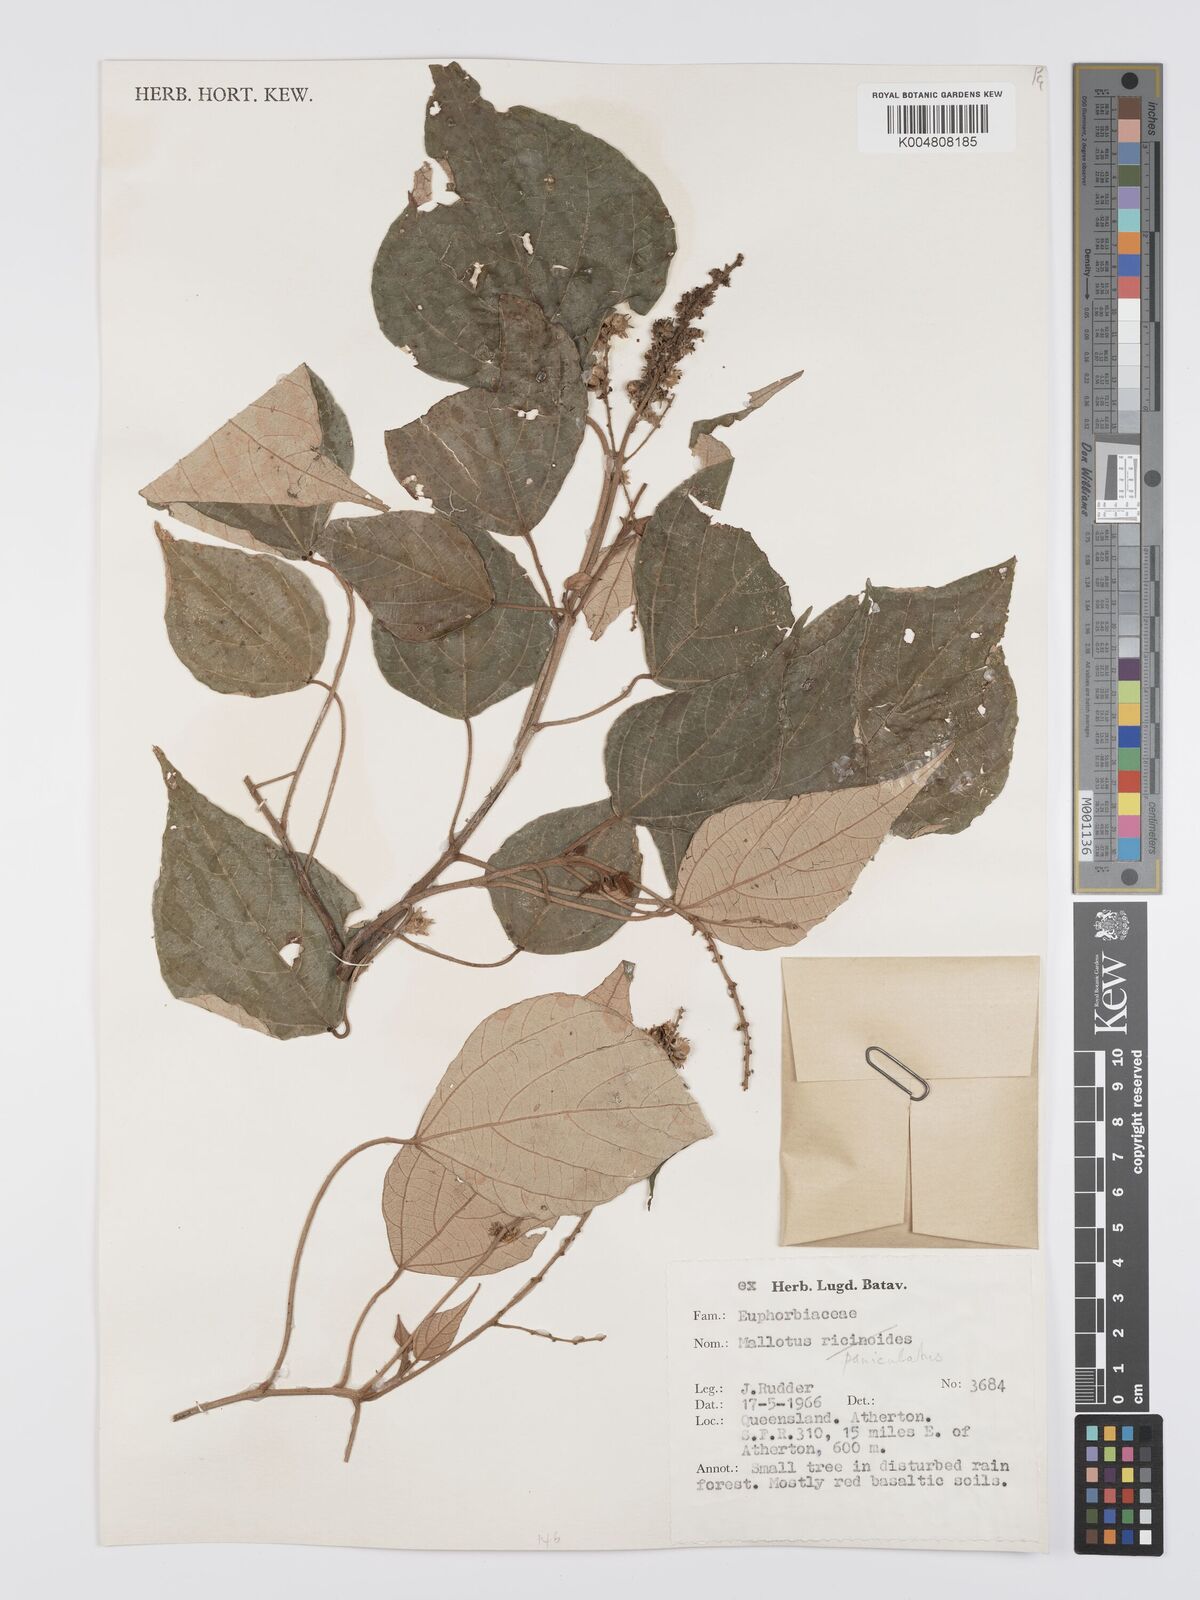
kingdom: Plantae
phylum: Tracheophyta
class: Magnoliopsida
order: Malpighiales
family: Euphorbiaceae
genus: Mallotus
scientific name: Mallotus paniculatus
